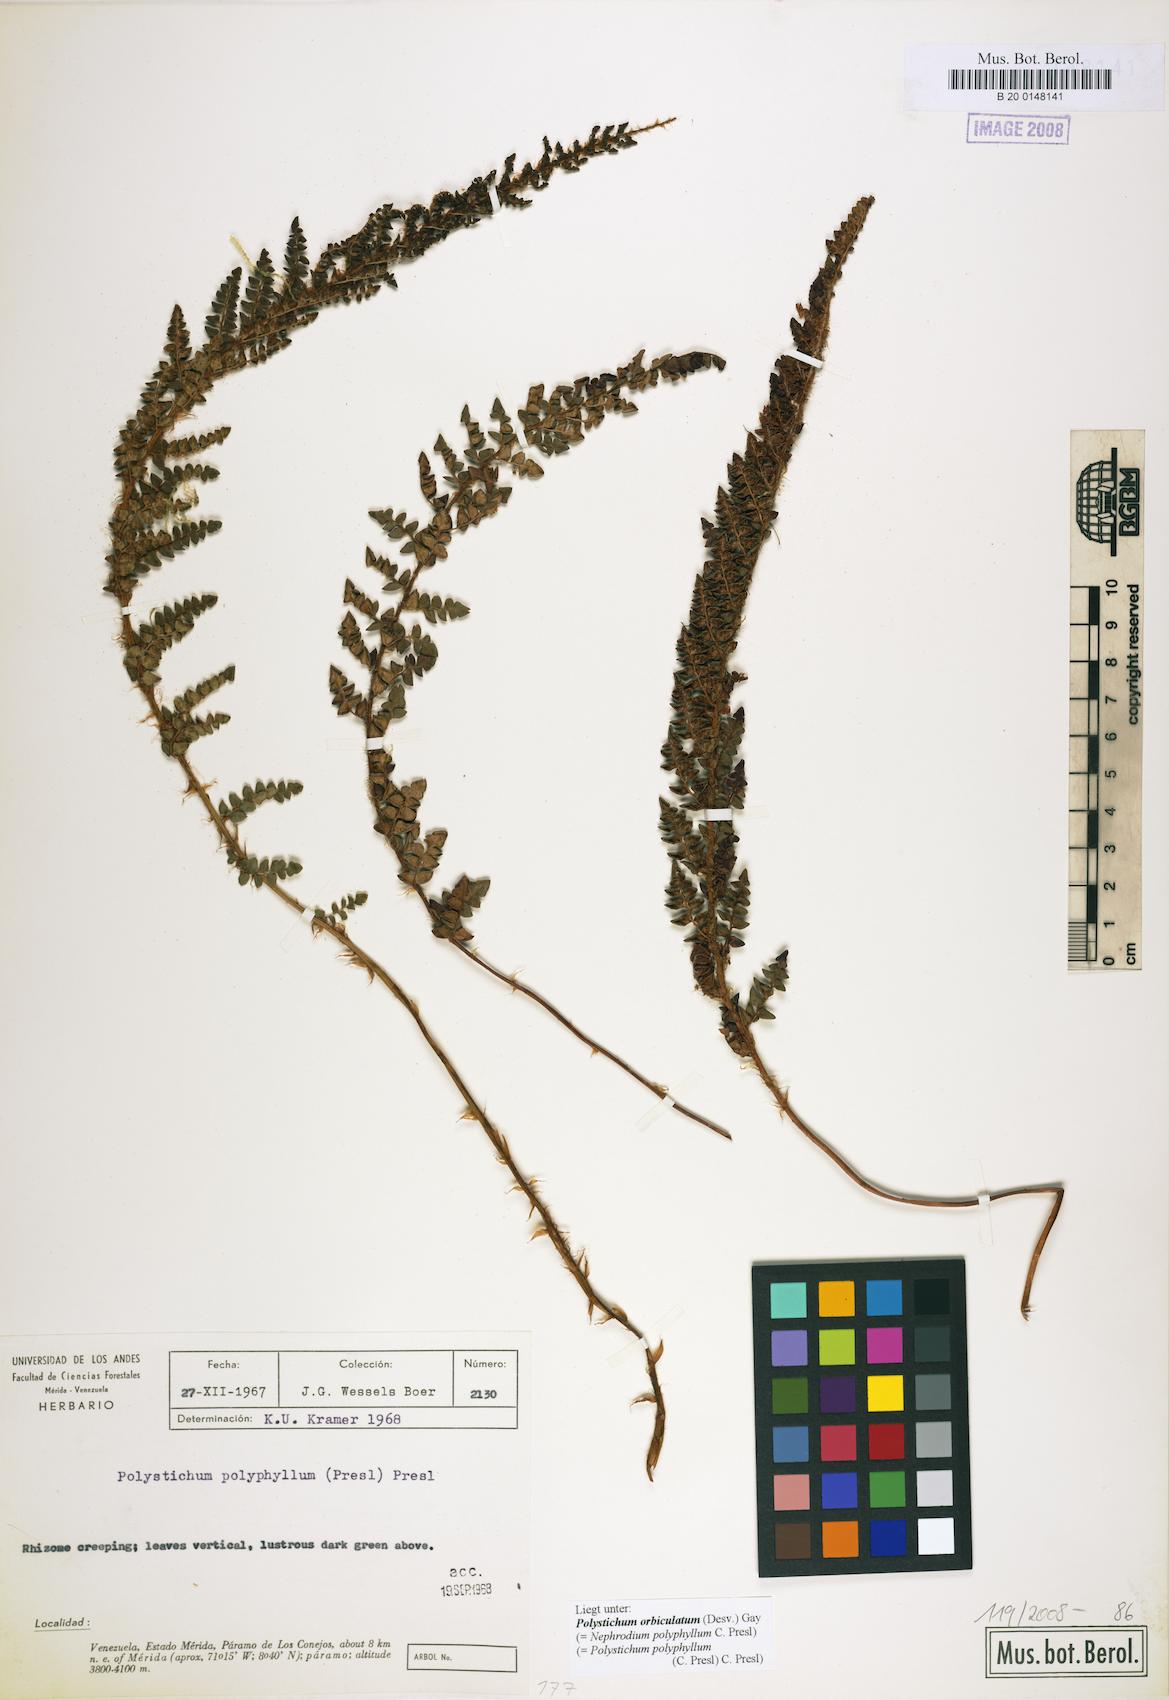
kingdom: Plantae
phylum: Tracheophyta
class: Polypodiopsida
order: Polypodiales
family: Dryopteridaceae
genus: Polystichum
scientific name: Polystichum orbiculatum
